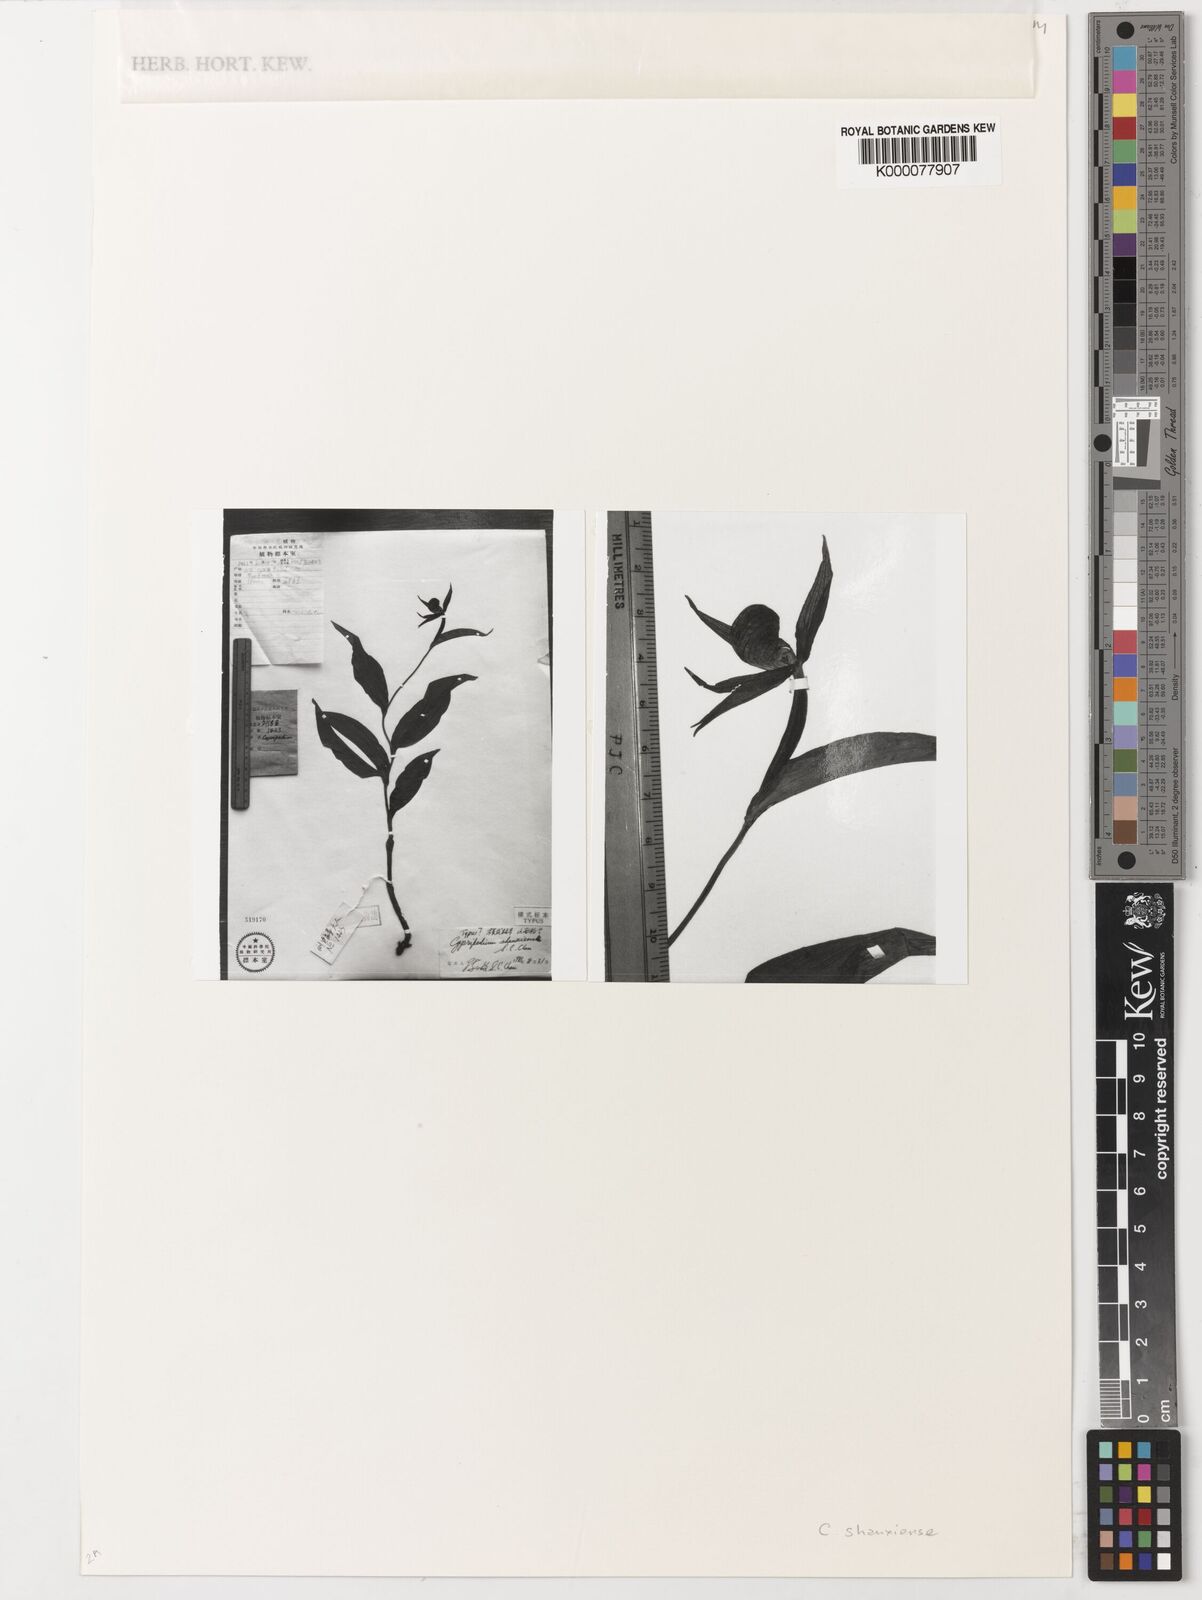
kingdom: Plantae
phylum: Tracheophyta
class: Liliopsida
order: Asparagales
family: Orchidaceae
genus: Cypripedium
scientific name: Cypripedium shanxiense
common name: Shanxi cypripedium
